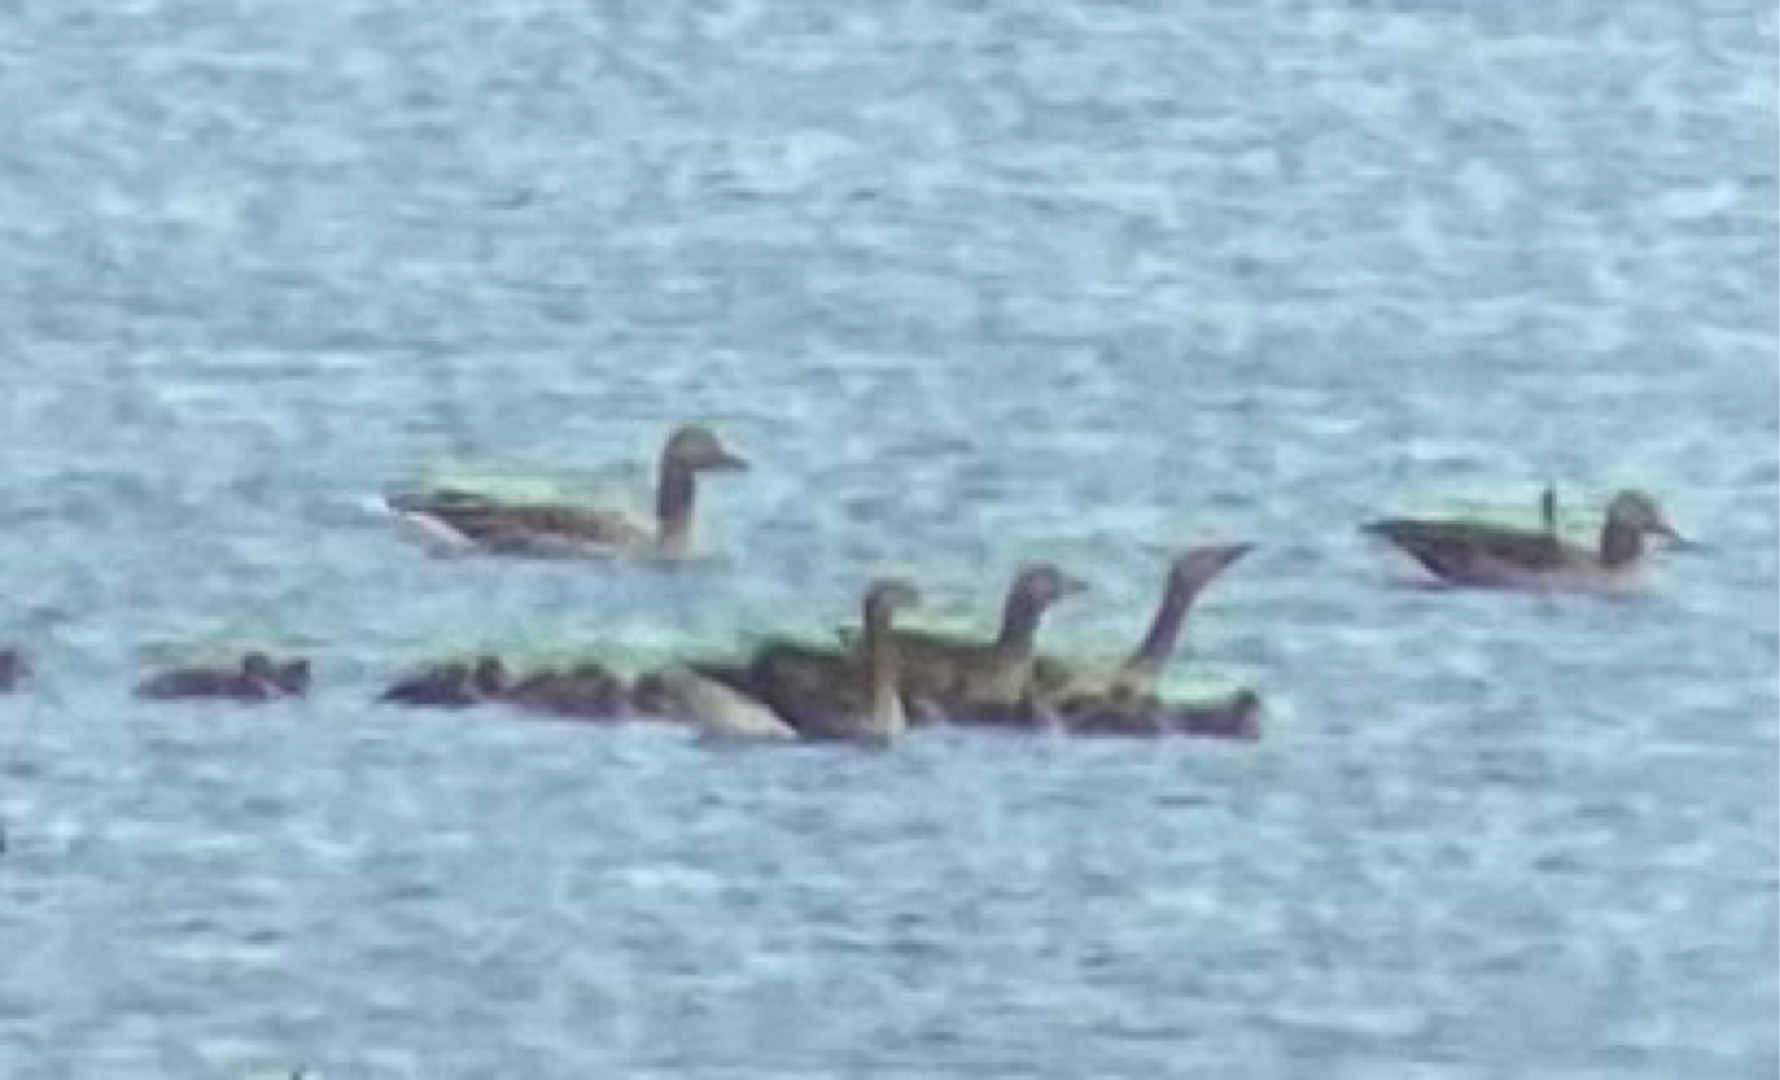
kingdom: Animalia
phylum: Chordata
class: Aves
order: Anseriformes
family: Anatidae
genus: Anser
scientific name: Anser anser
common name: Grågås
